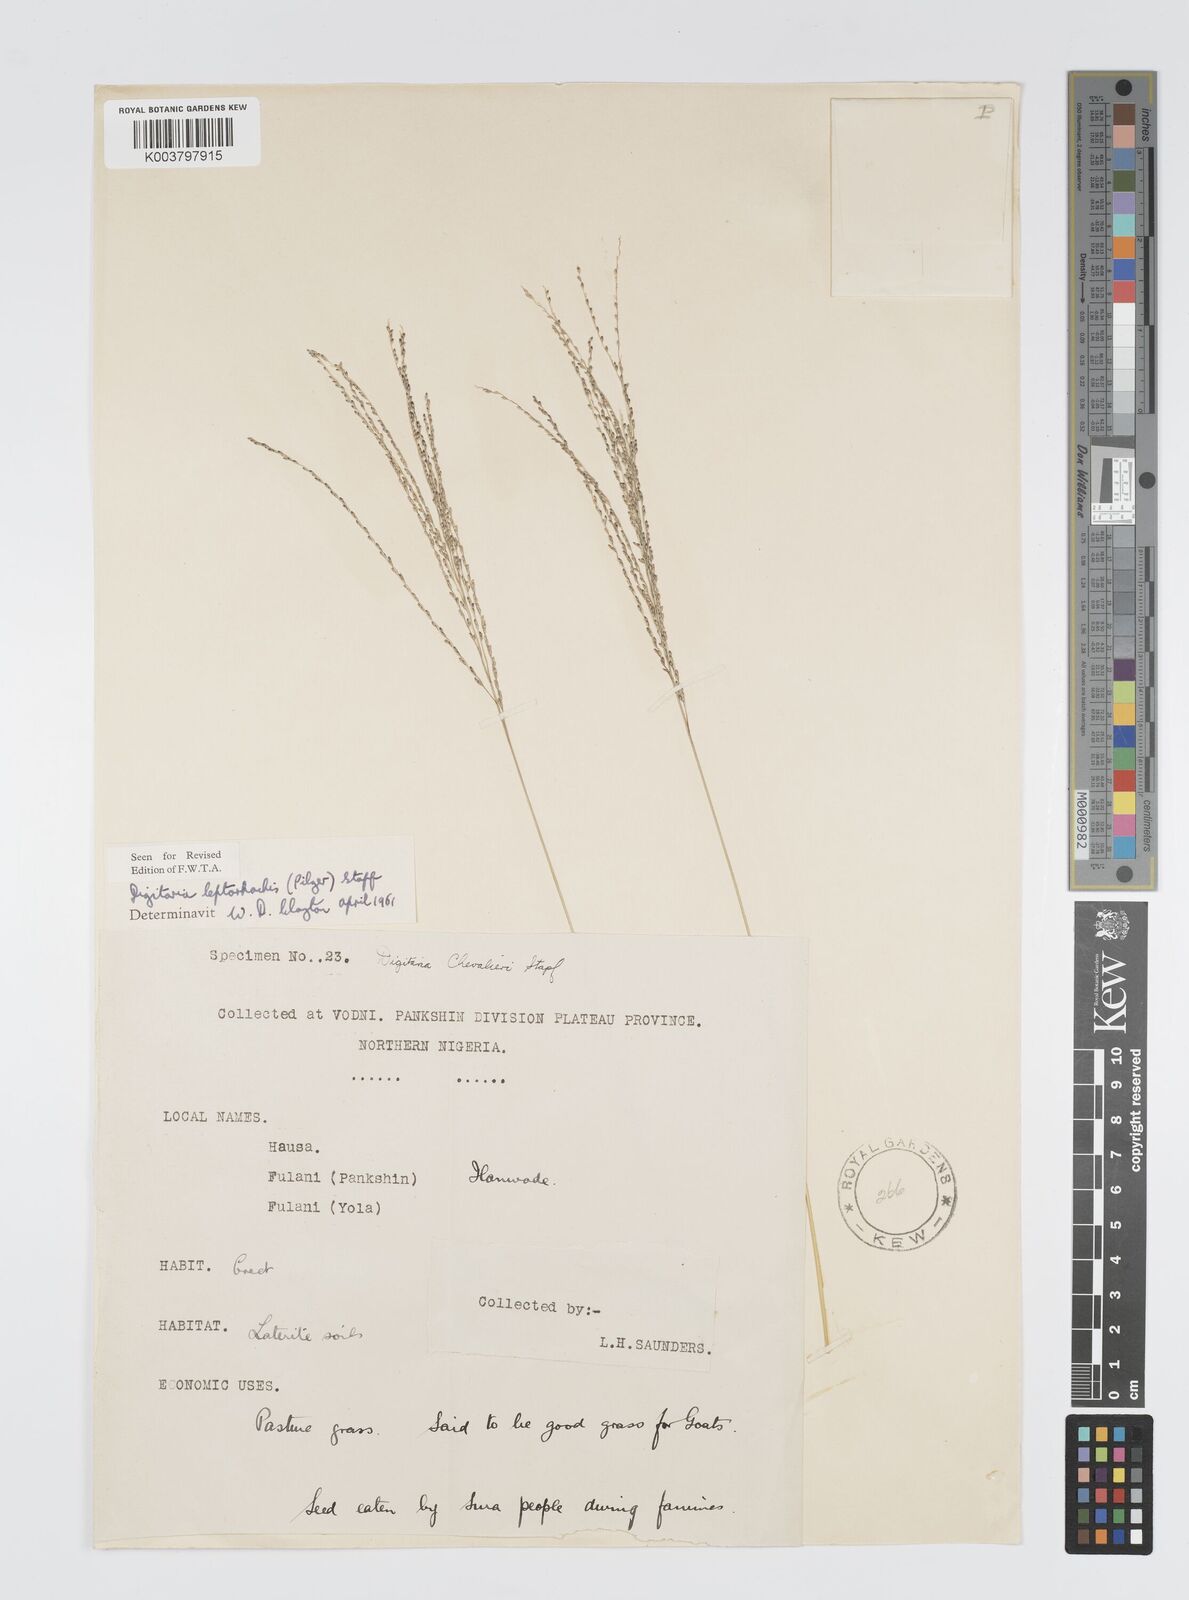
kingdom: Plantae
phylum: Tracheophyta
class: Liliopsida
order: Poales
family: Poaceae
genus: Digitaria
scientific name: Digitaria leptorhachis
